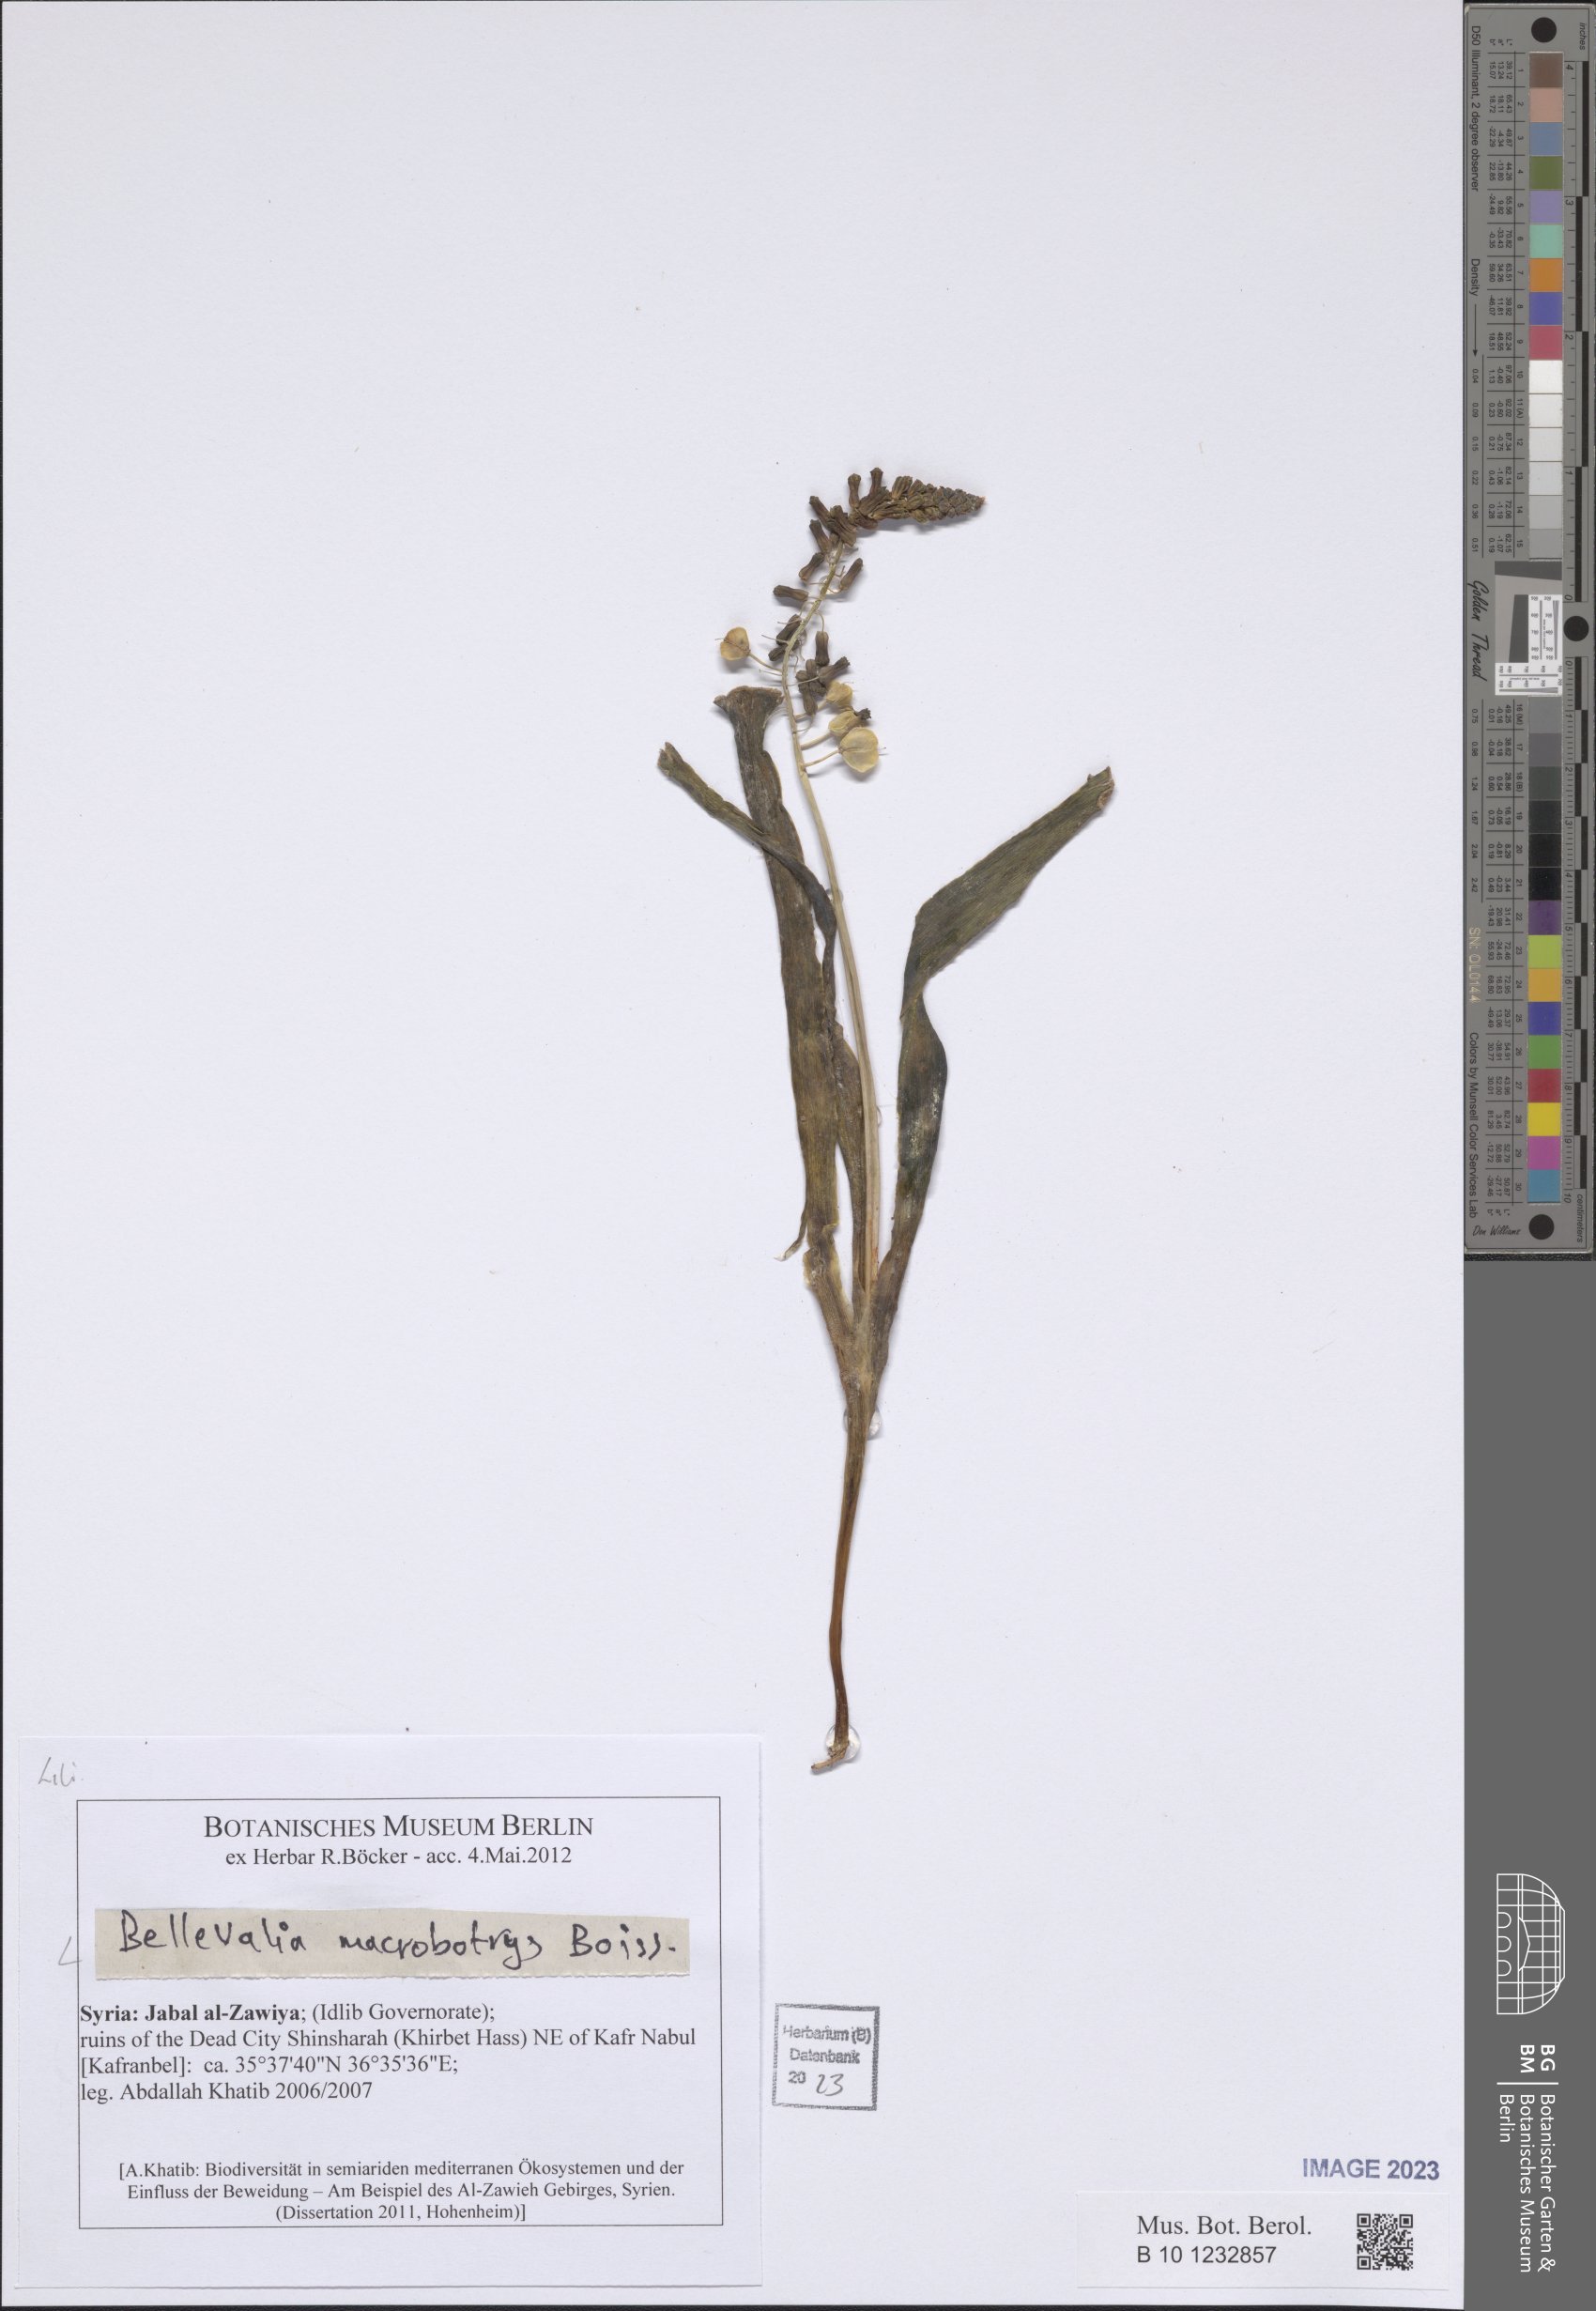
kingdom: Plantae
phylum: Tracheophyta
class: Liliopsida
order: Asparagales
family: Asparagaceae
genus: Bellevalia
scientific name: Bellevalia macrobotrys
